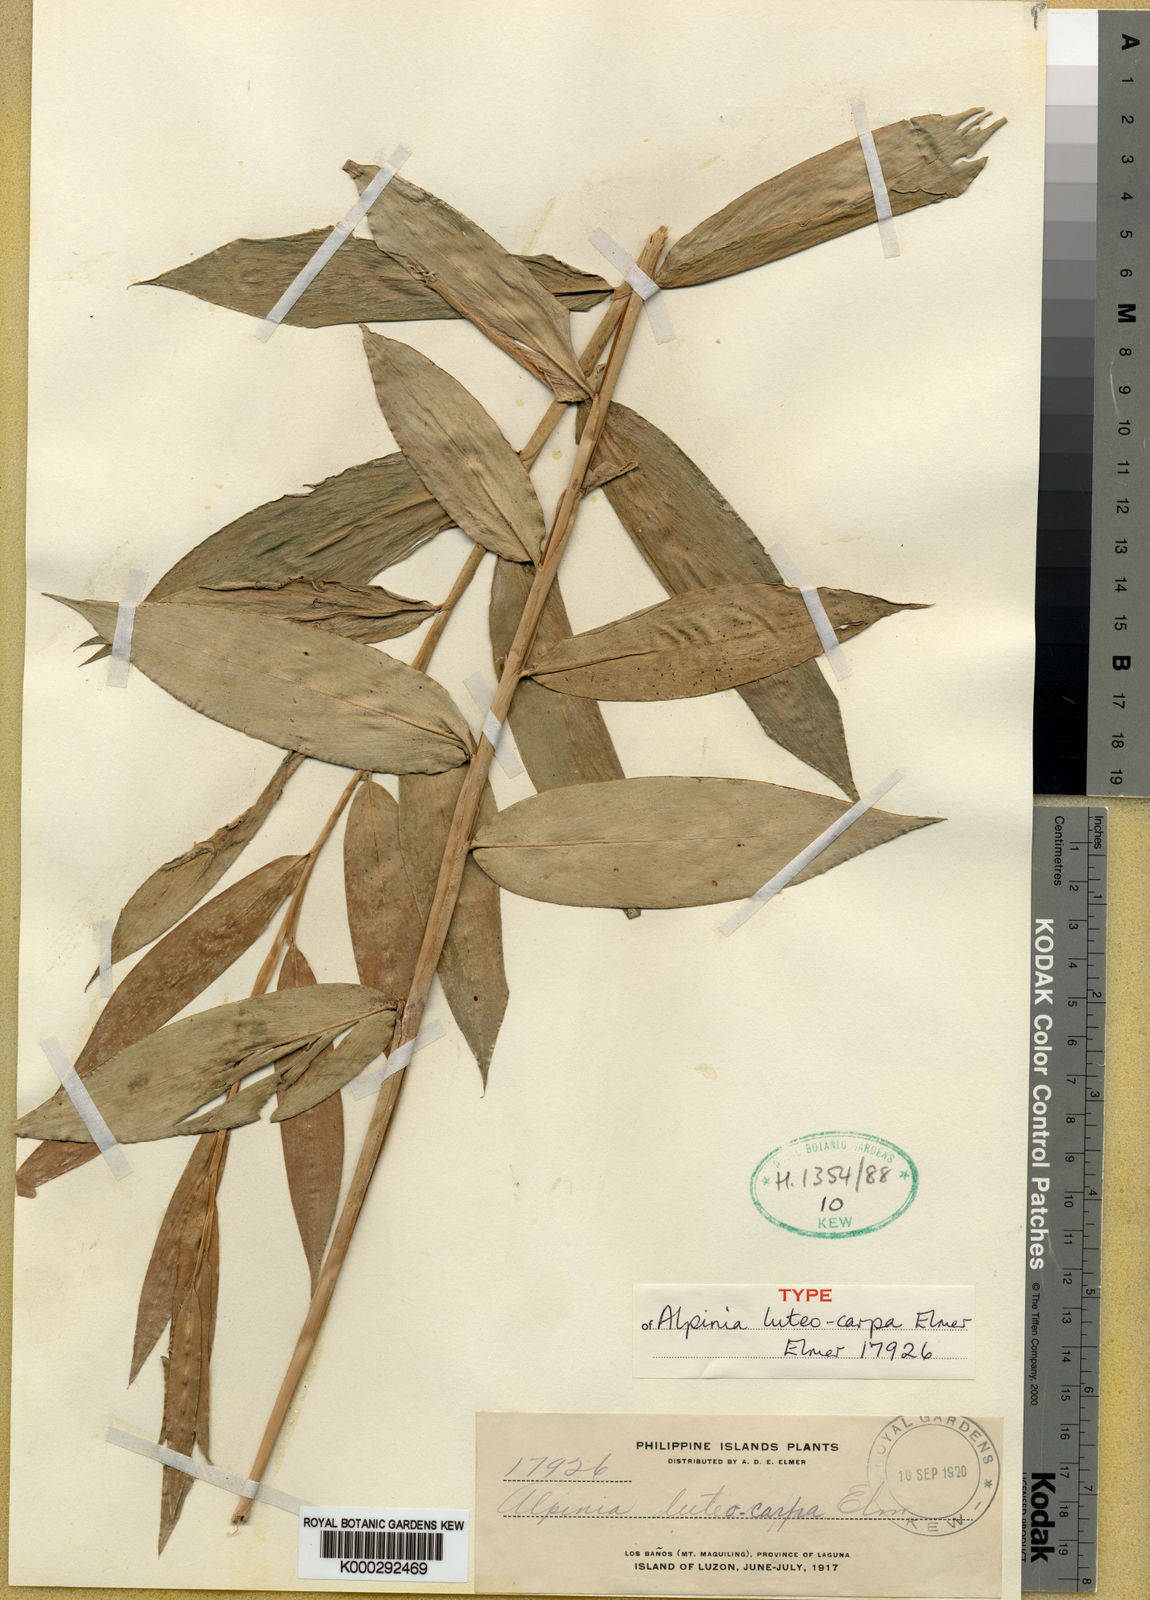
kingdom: Plantae
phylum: Tracheophyta
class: Liliopsida
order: Zingiberales
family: Zingiberaceae
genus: Alpinia
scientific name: Alpinia luteocarpa
